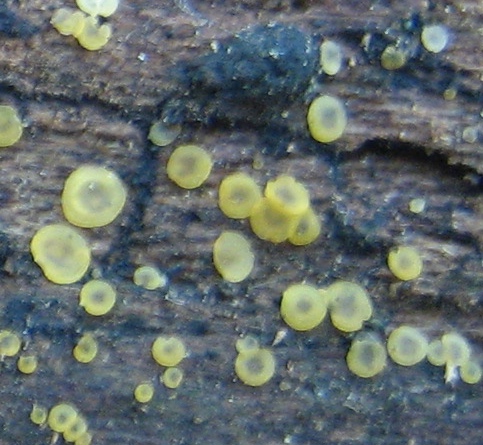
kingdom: Fungi
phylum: Ascomycota
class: Orbiliomycetes
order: Orbiliales
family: Orbiliaceae
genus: Orbilia
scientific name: Orbilia xanthostigma
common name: krumsporet voksskive
